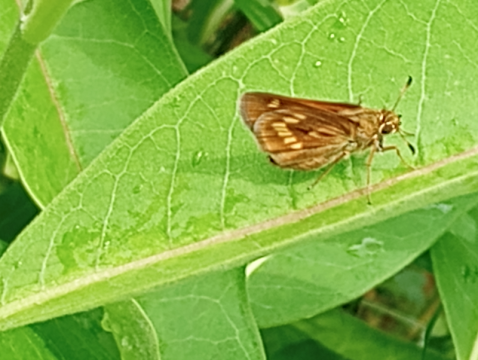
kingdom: Animalia
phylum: Arthropoda
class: Insecta
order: Lepidoptera
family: Hesperiidae
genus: Polites
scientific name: Polites
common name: Long Dash Skipper
